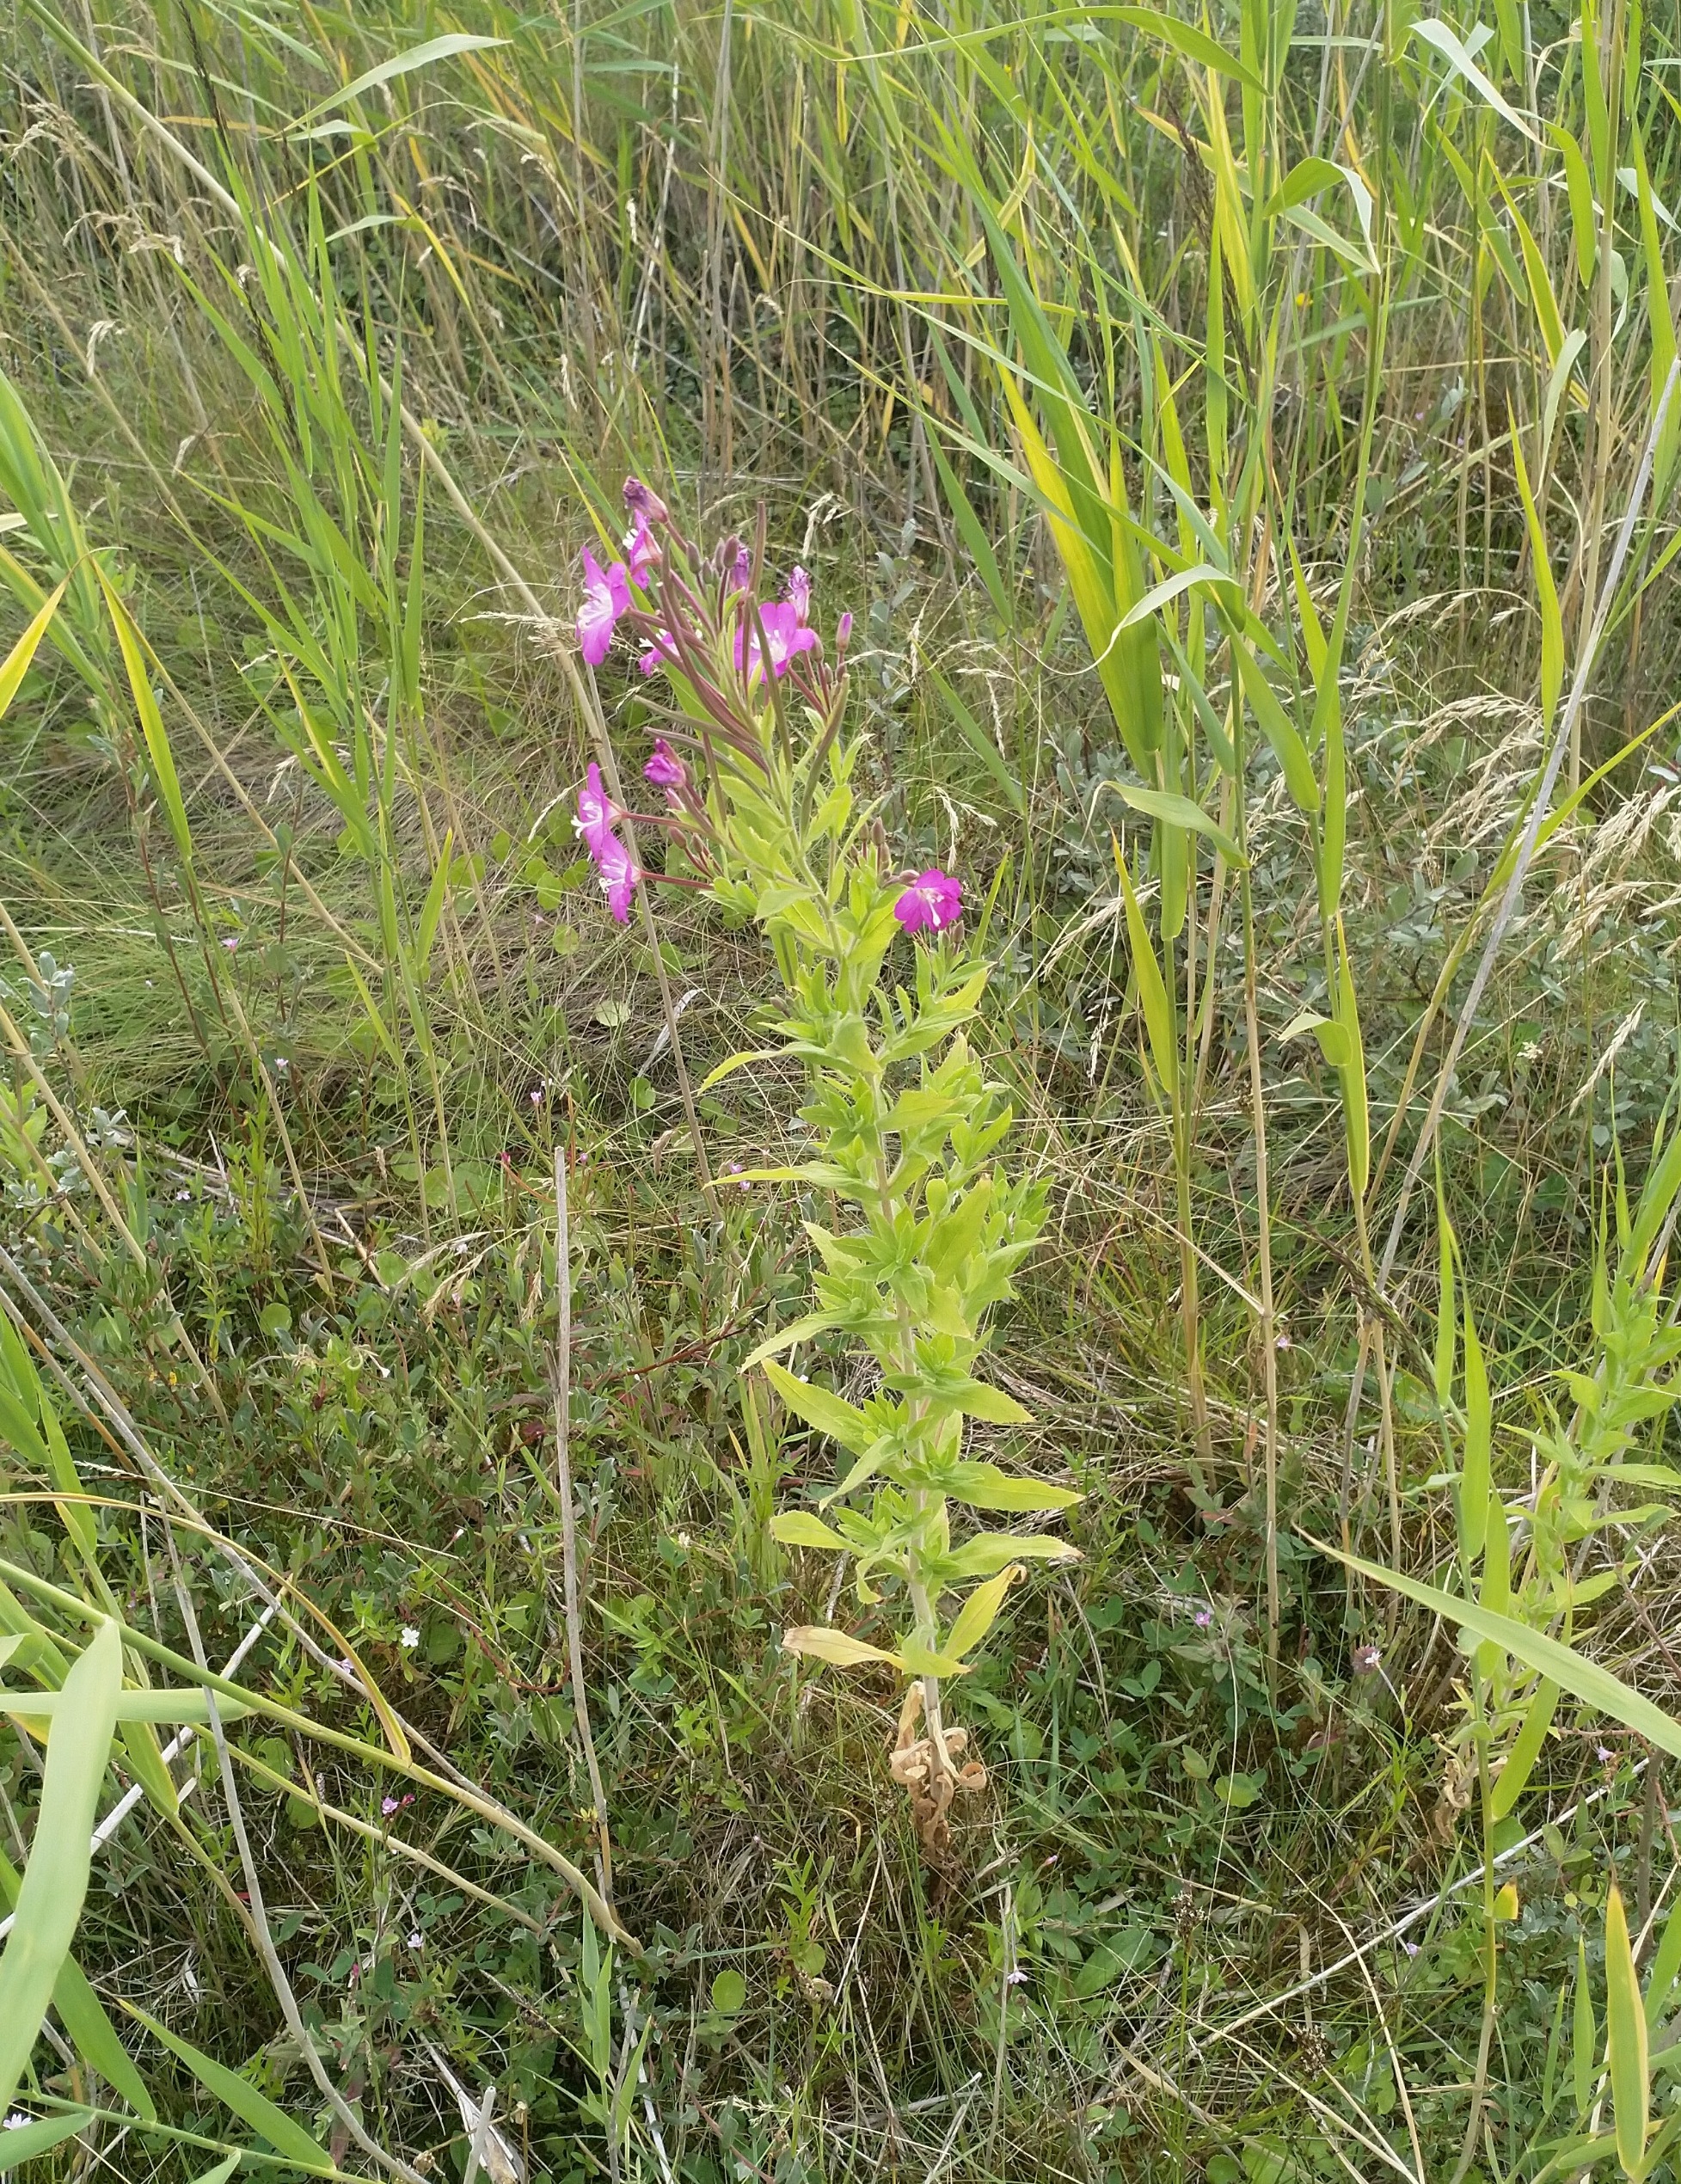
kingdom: Plantae
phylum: Tracheophyta
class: Magnoliopsida
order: Myrtales
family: Onagraceae
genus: Epilobium
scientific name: Epilobium hirsutum
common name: Lådden dueurt
